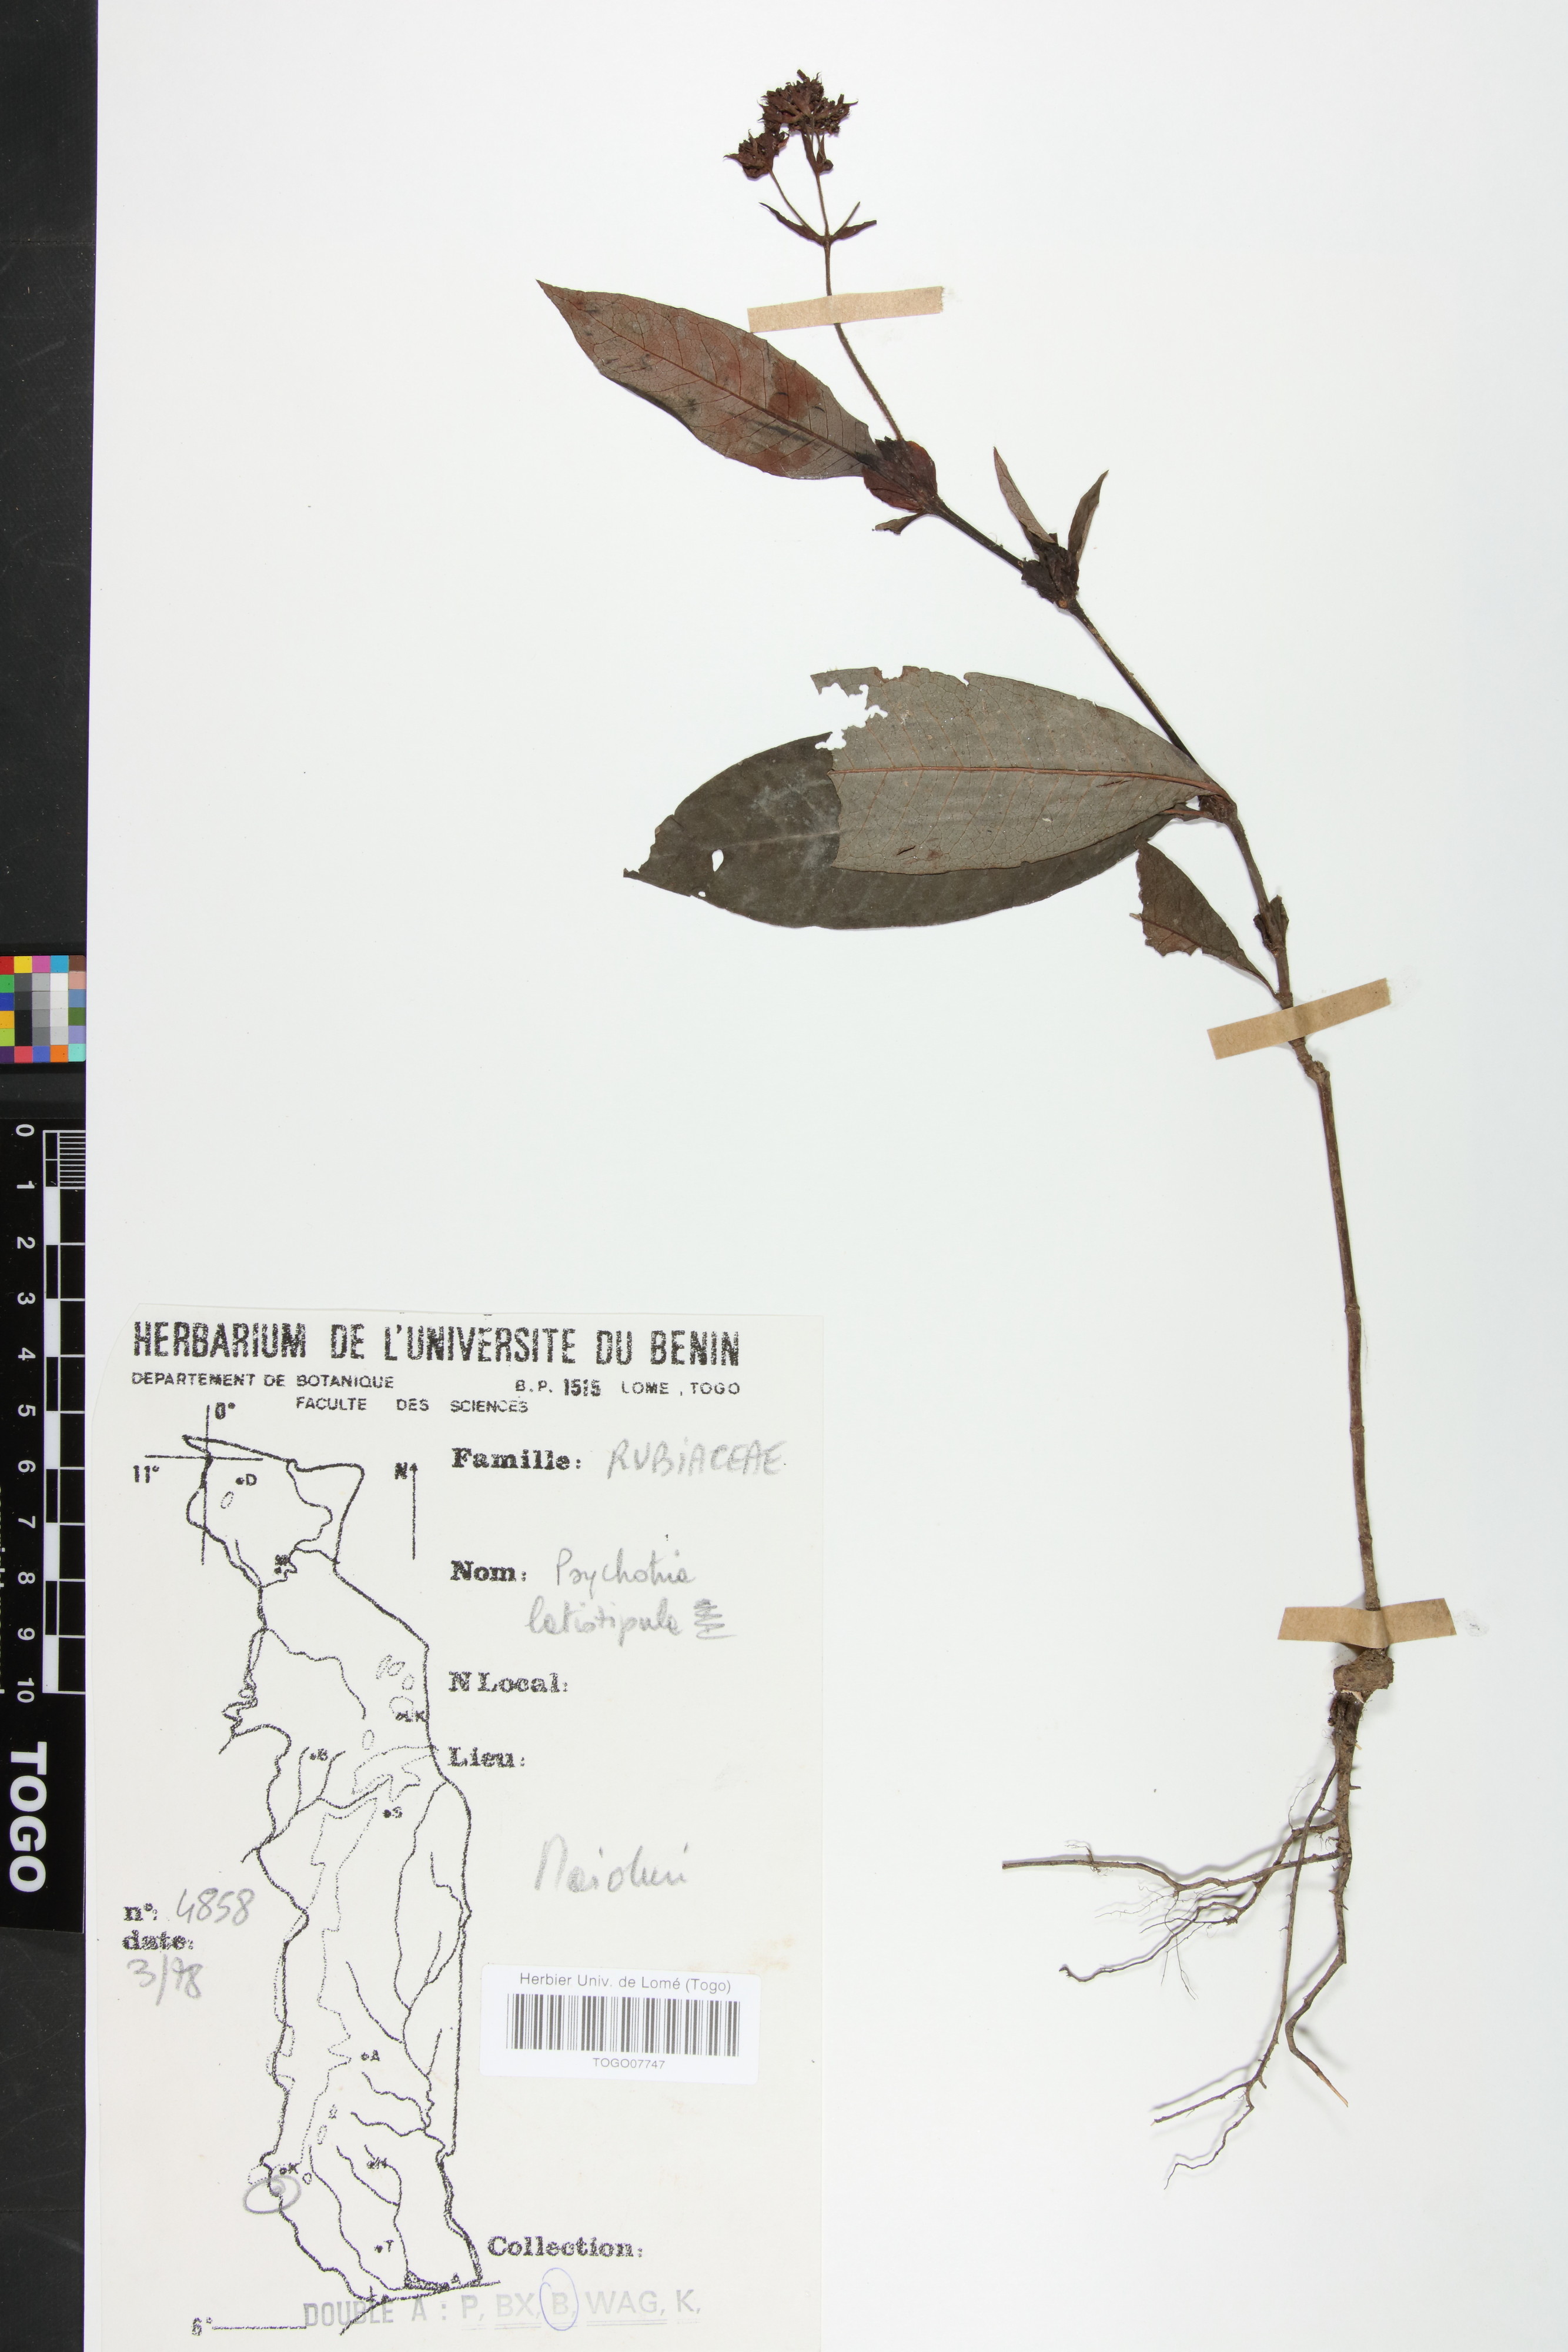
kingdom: Plantae
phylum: Tracheophyta
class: Magnoliopsida
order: Gentianales
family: Rubiaceae
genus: Psychotria
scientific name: Psychotria latistipula
